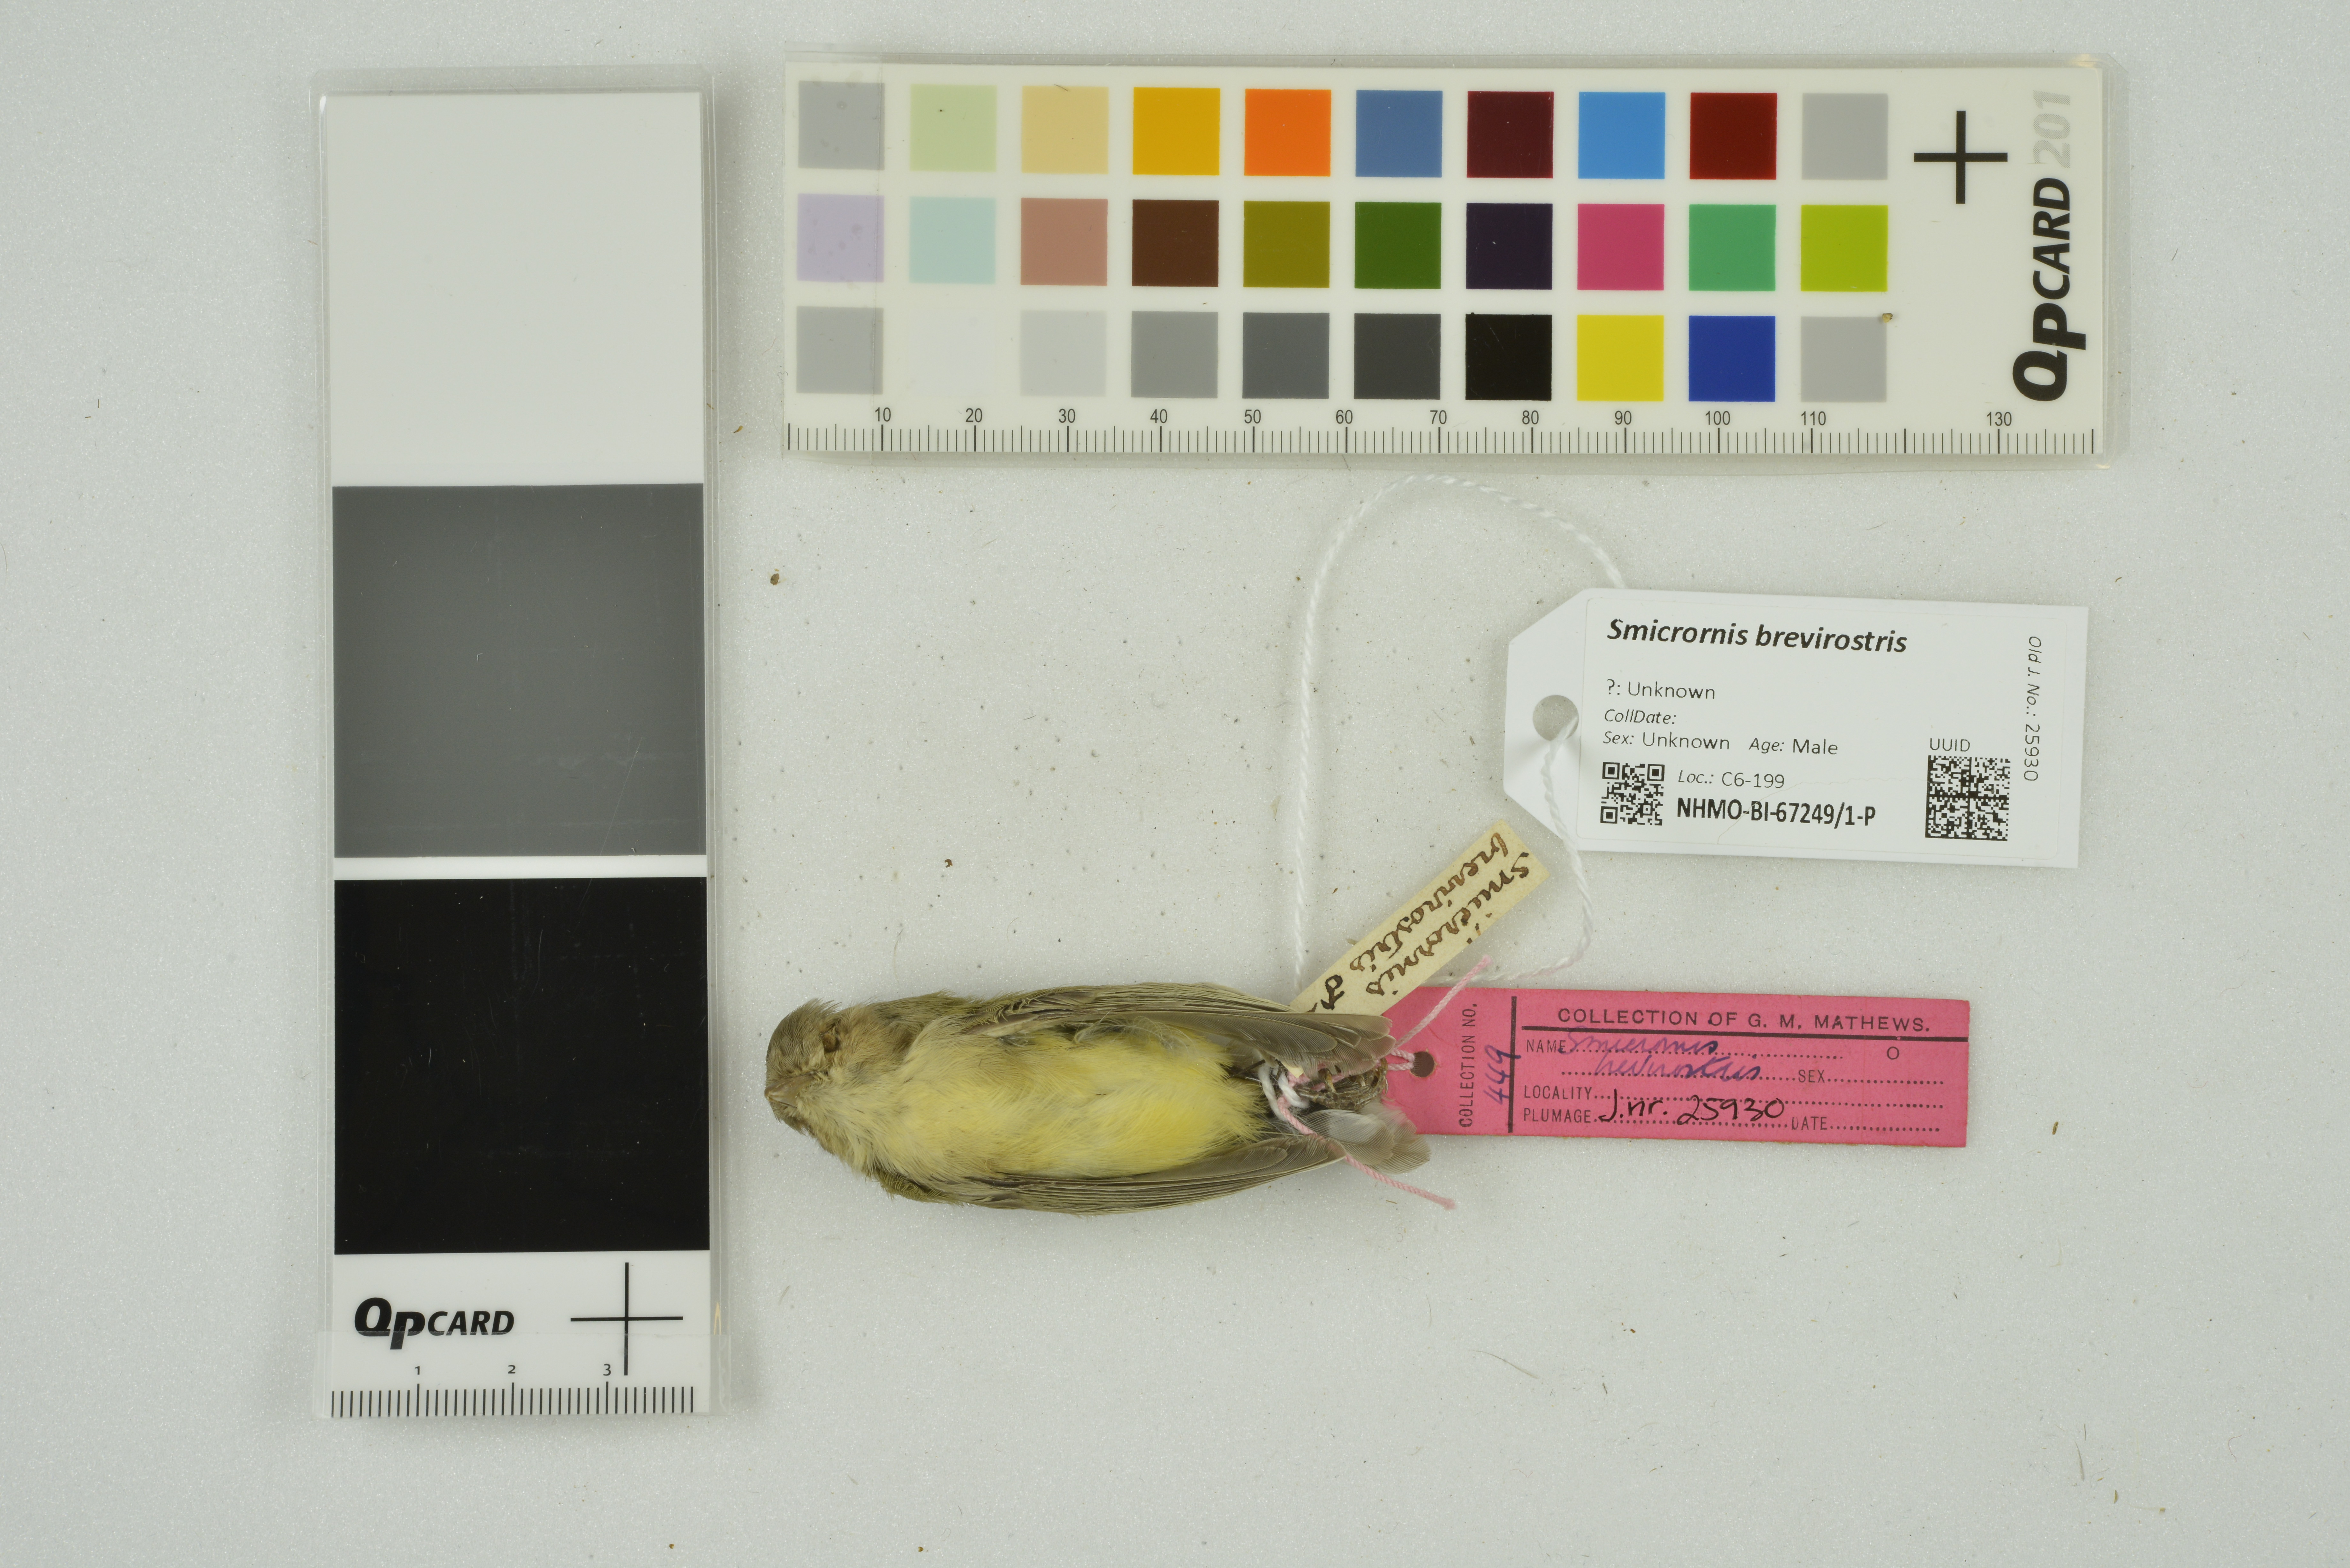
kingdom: Animalia
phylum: Chordata
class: Aves
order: Passeriformes
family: Acanthizidae
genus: Smicrornis
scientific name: Smicrornis brevirostris
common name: Weebill
